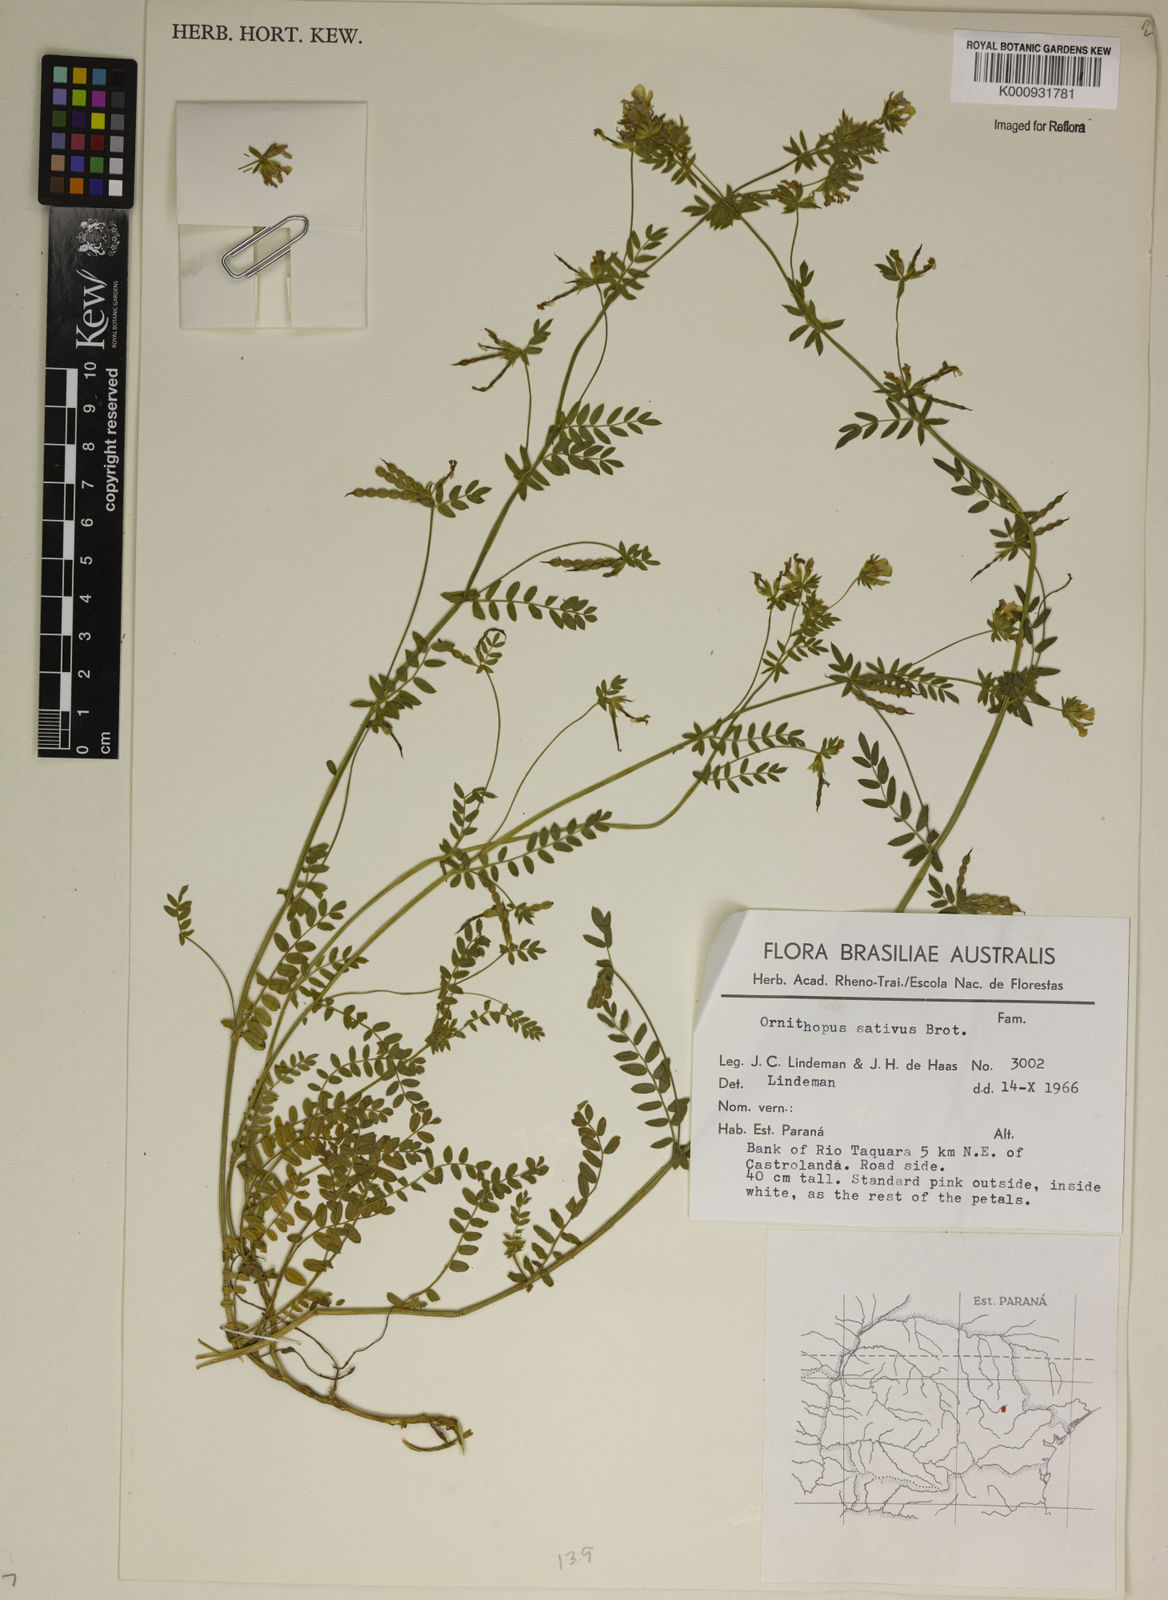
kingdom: Plantae
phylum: Tracheophyta
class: Magnoliopsida
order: Fabales
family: Fabaceae
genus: Ornithopus
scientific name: Ornithopus sativus
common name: Serradella
